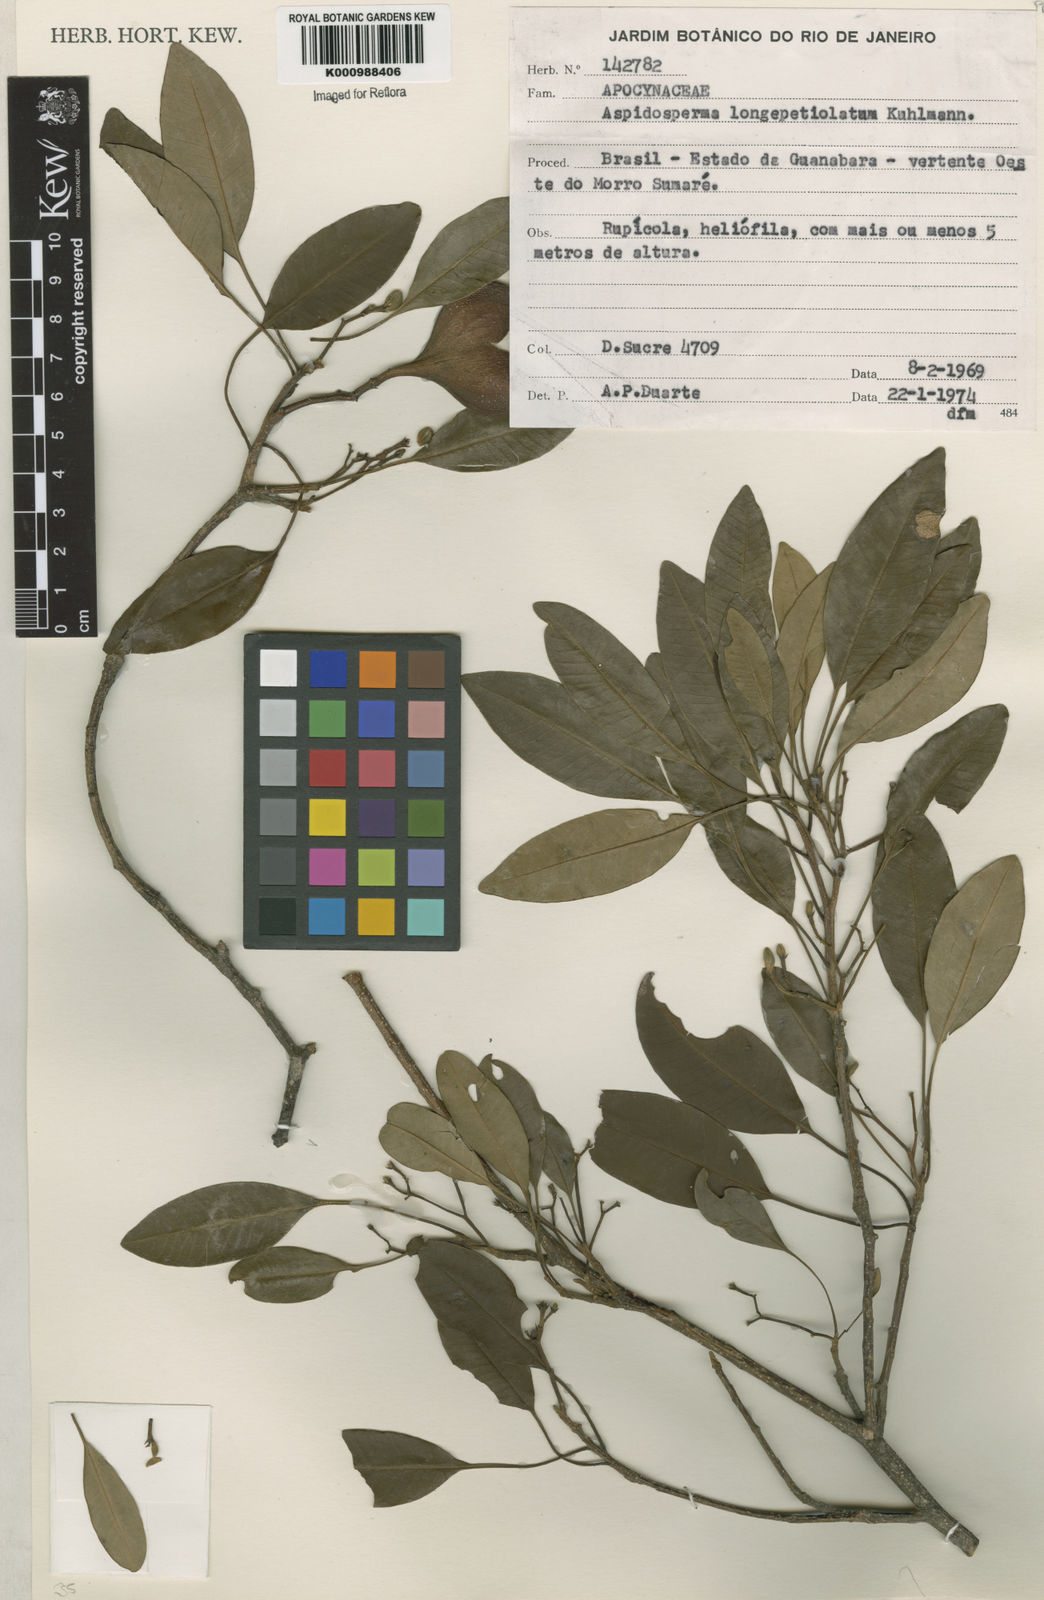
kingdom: Plantae
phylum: Tracheophyta
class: Magnoliopsida
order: Gentianales
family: Apocynaceae
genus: Aspidosperma
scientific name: Aspidosperma
